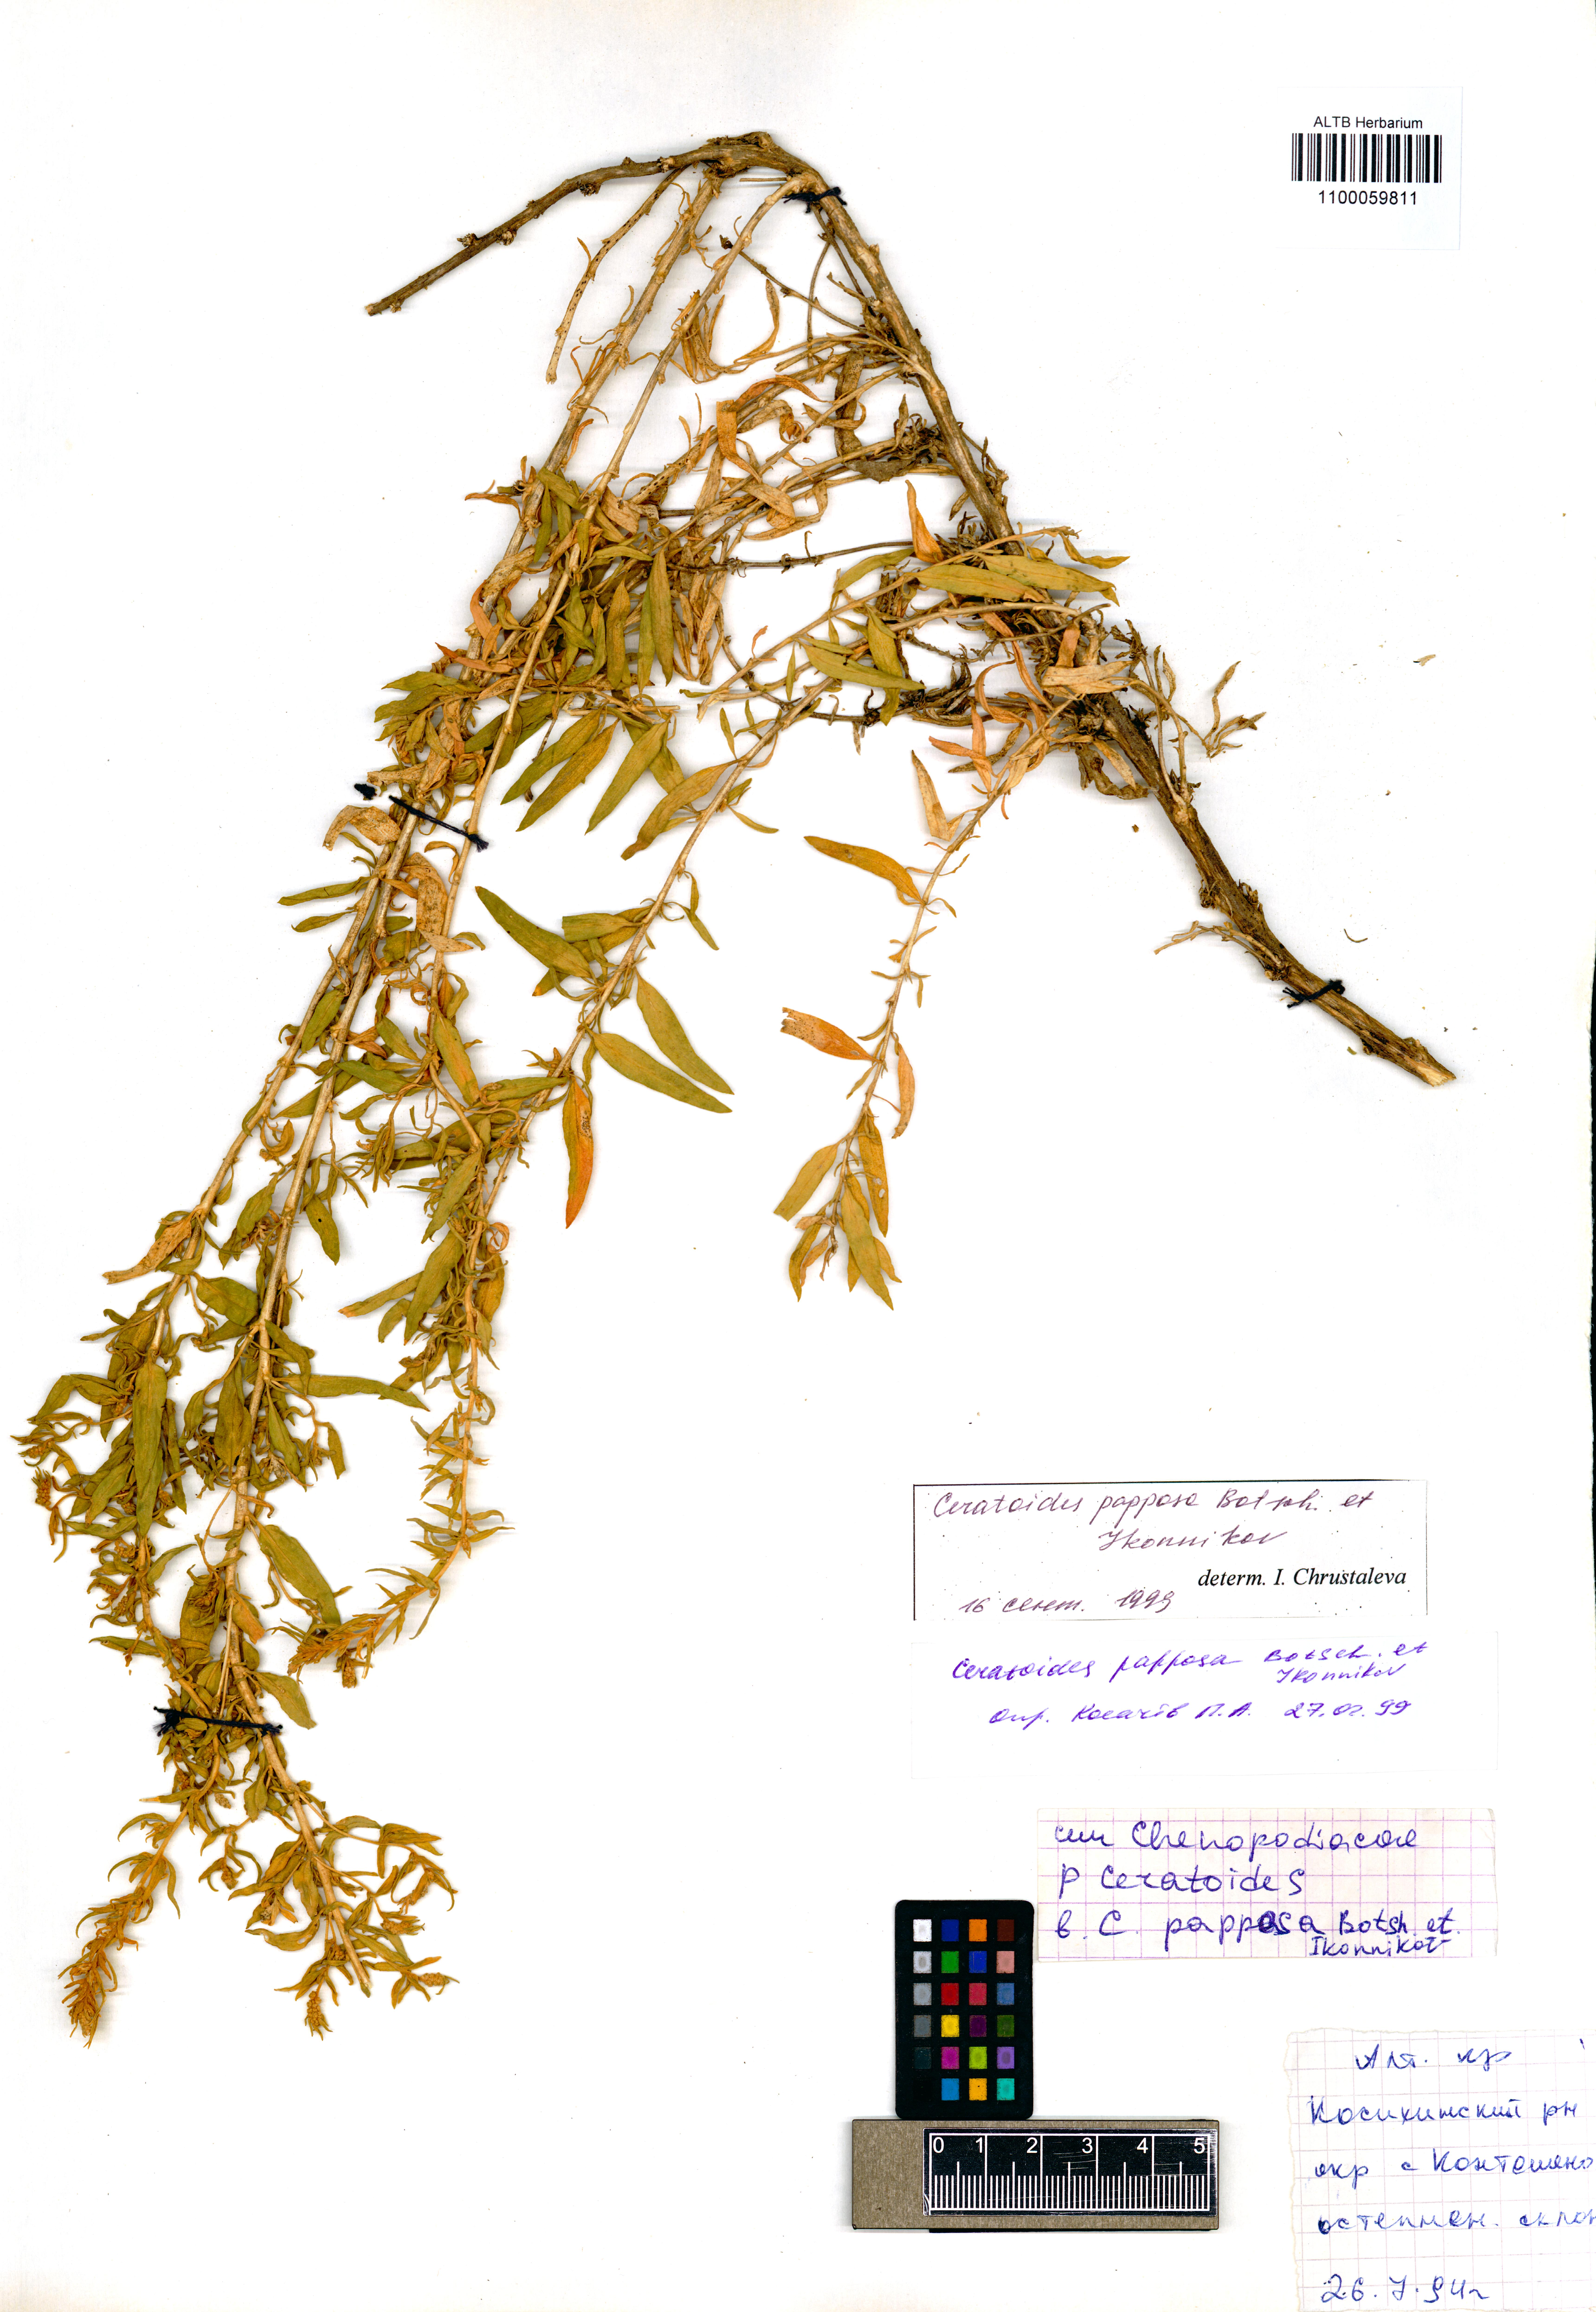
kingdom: Plantae
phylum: Tracheophyta
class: Magnoliopsida
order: Caryophyllales
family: Amaranthaceae
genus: Krascheninnikovia
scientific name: Krascheninnikovia ceratoides
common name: Pamirian winterfat
